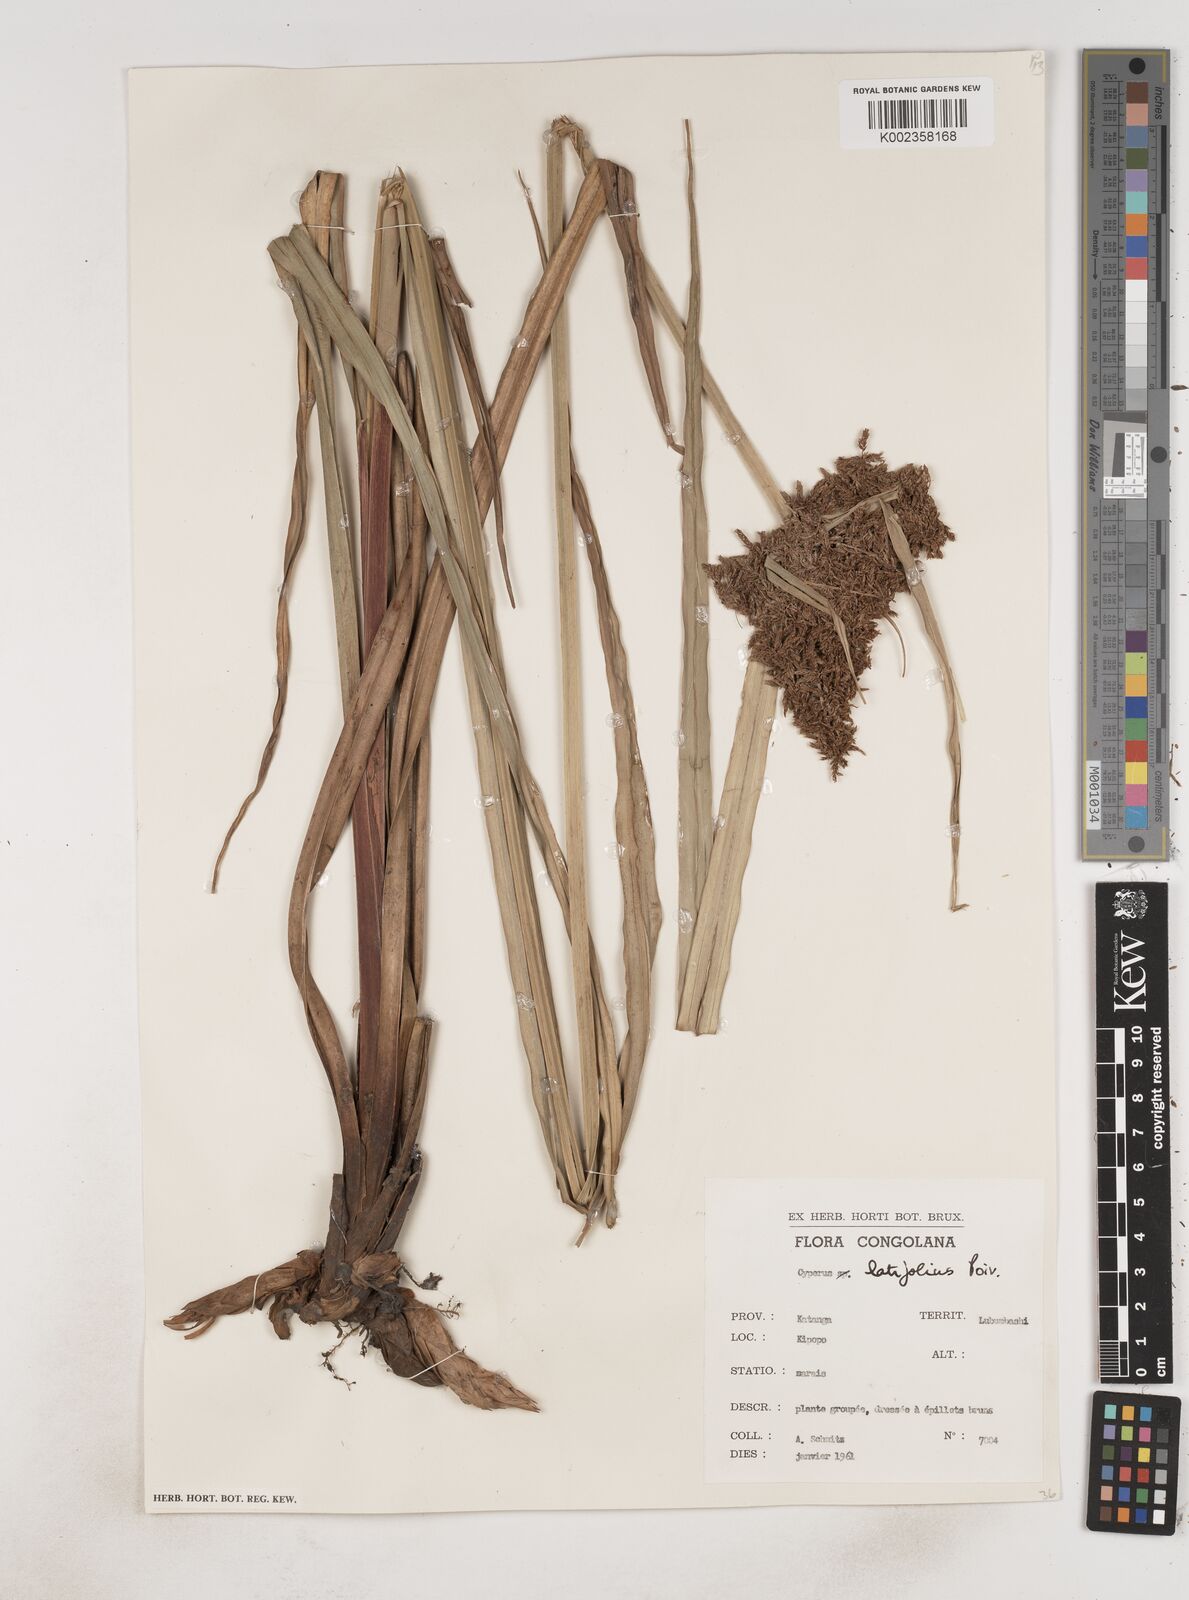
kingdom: Plantae
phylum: Tracheophyta
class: Liliopsida
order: Poales
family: Cyperaceae
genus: Cyperus
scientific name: Cyperus latifolius
